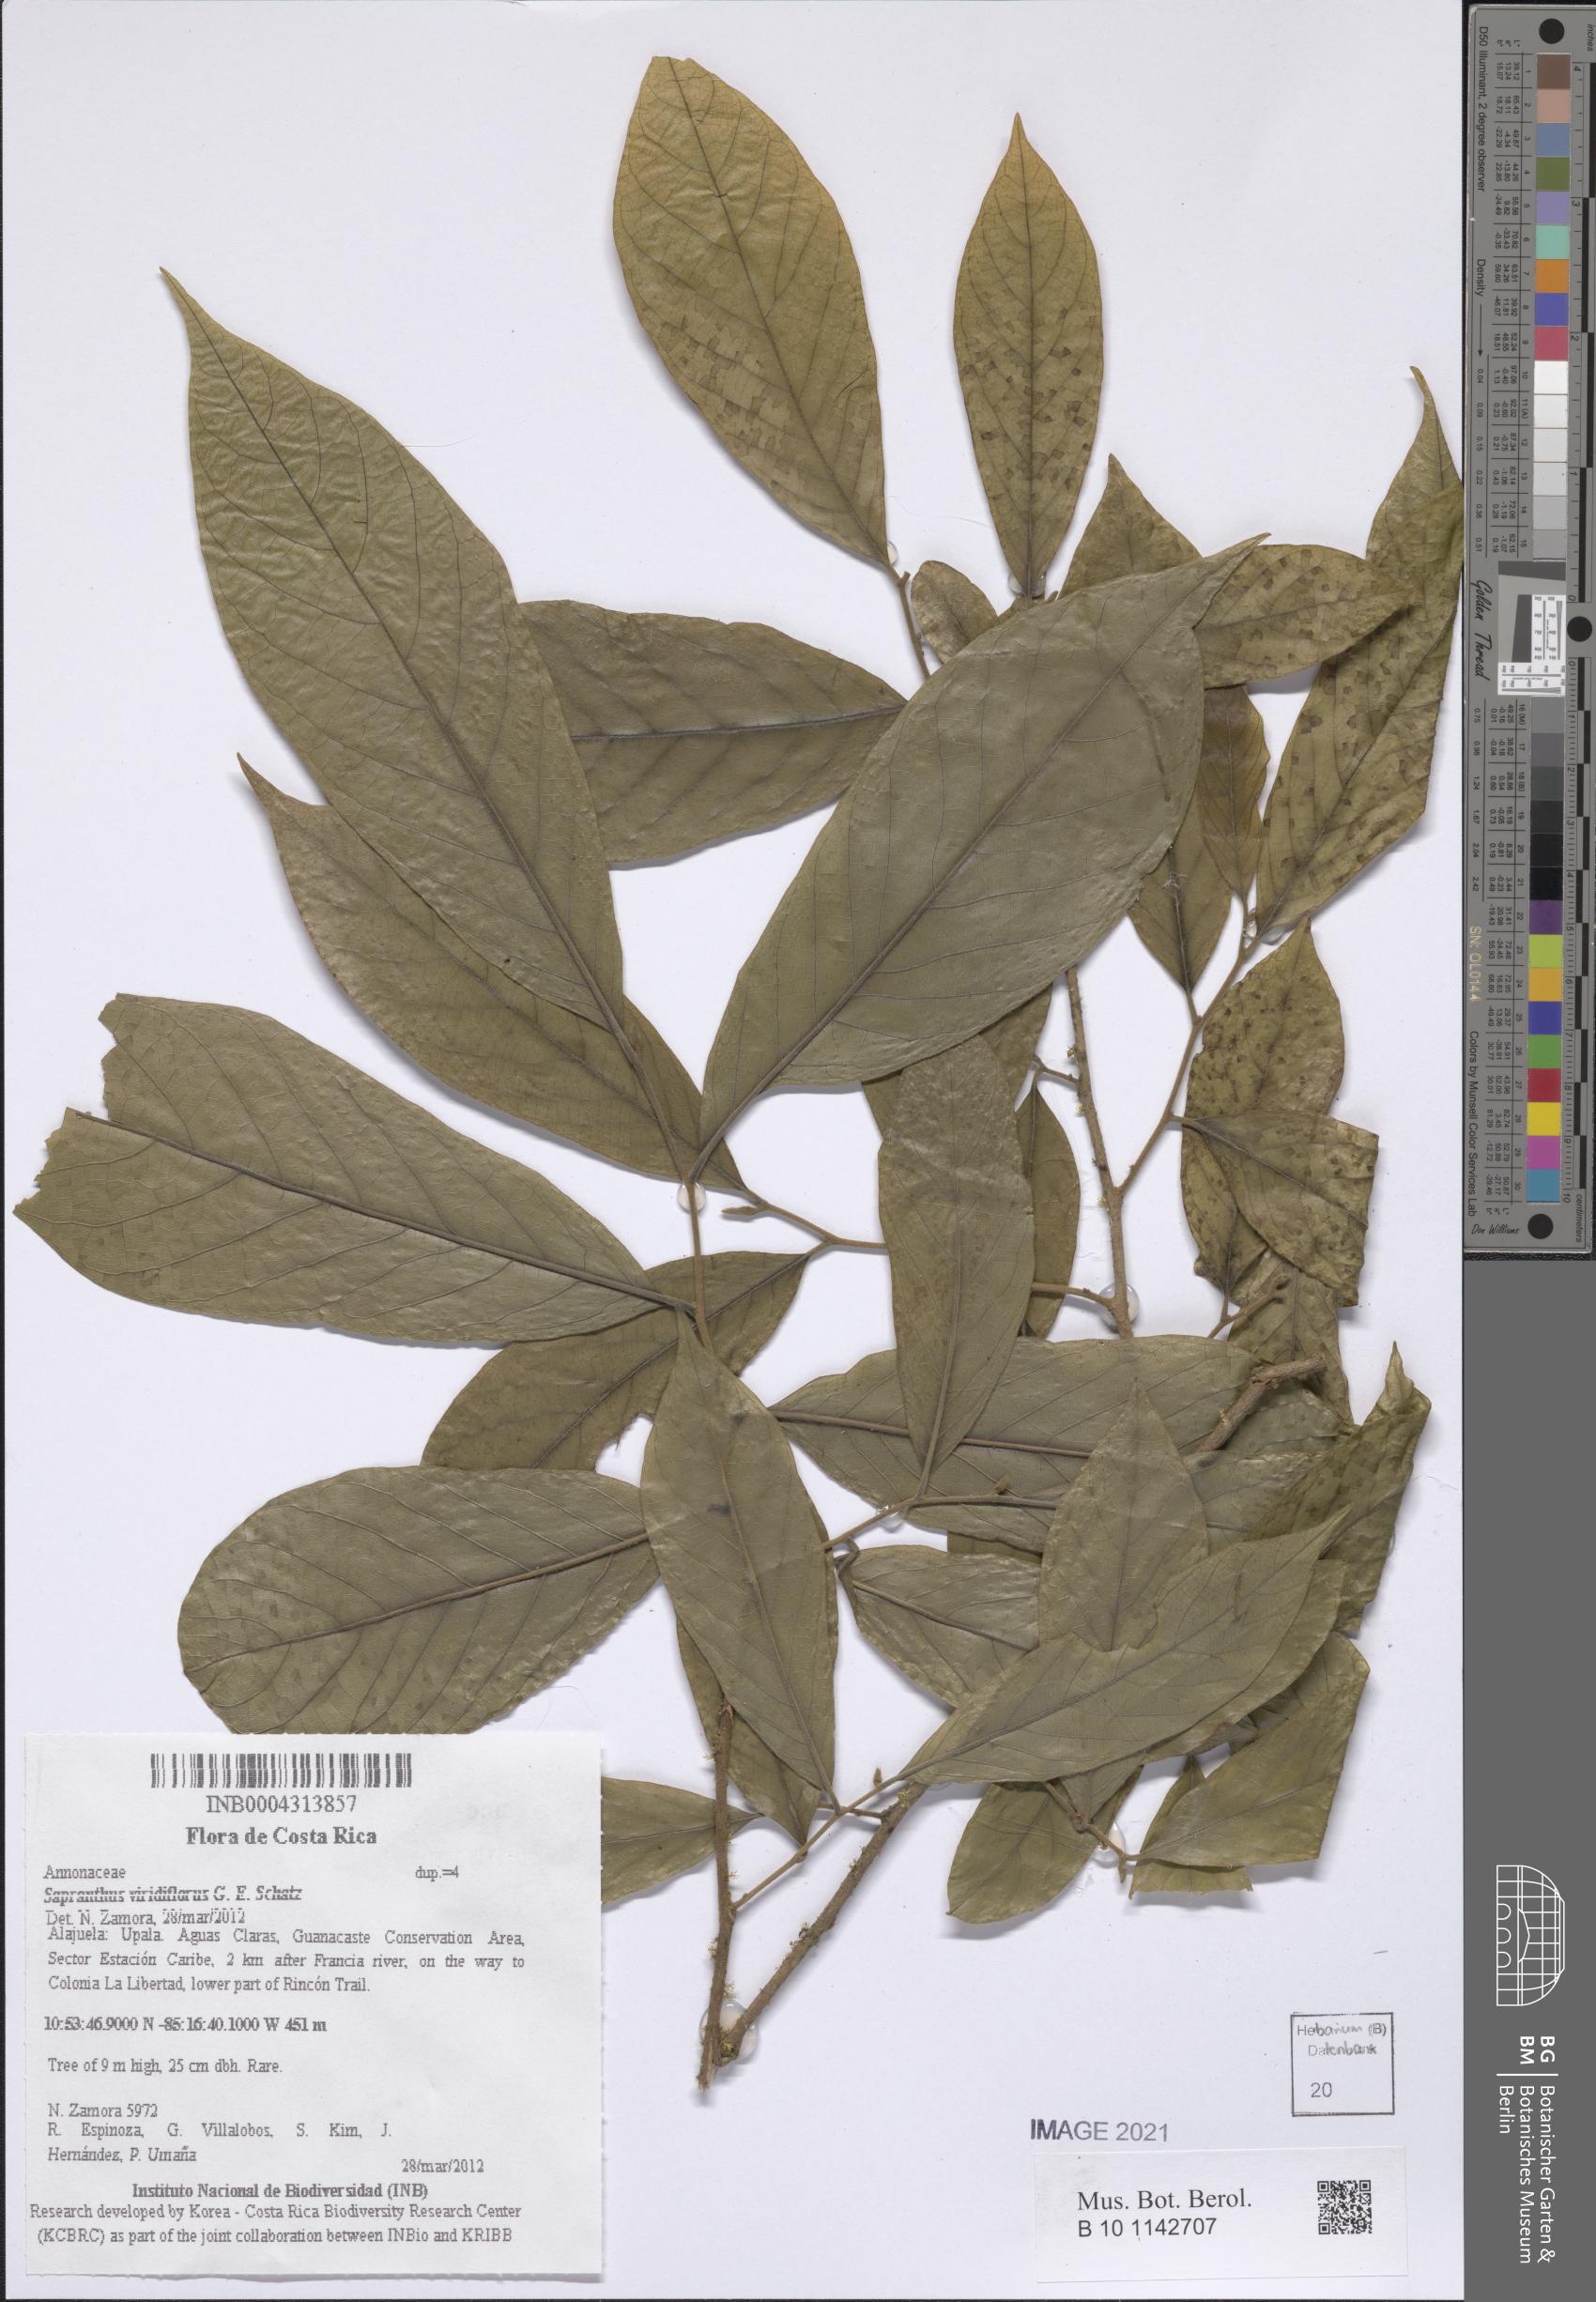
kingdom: Plantae
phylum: Tracheophyta
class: Magnoliopsida
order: Magnoliales
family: Annonaceae
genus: Sapranthus
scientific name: Sapranthus viridiflorus
